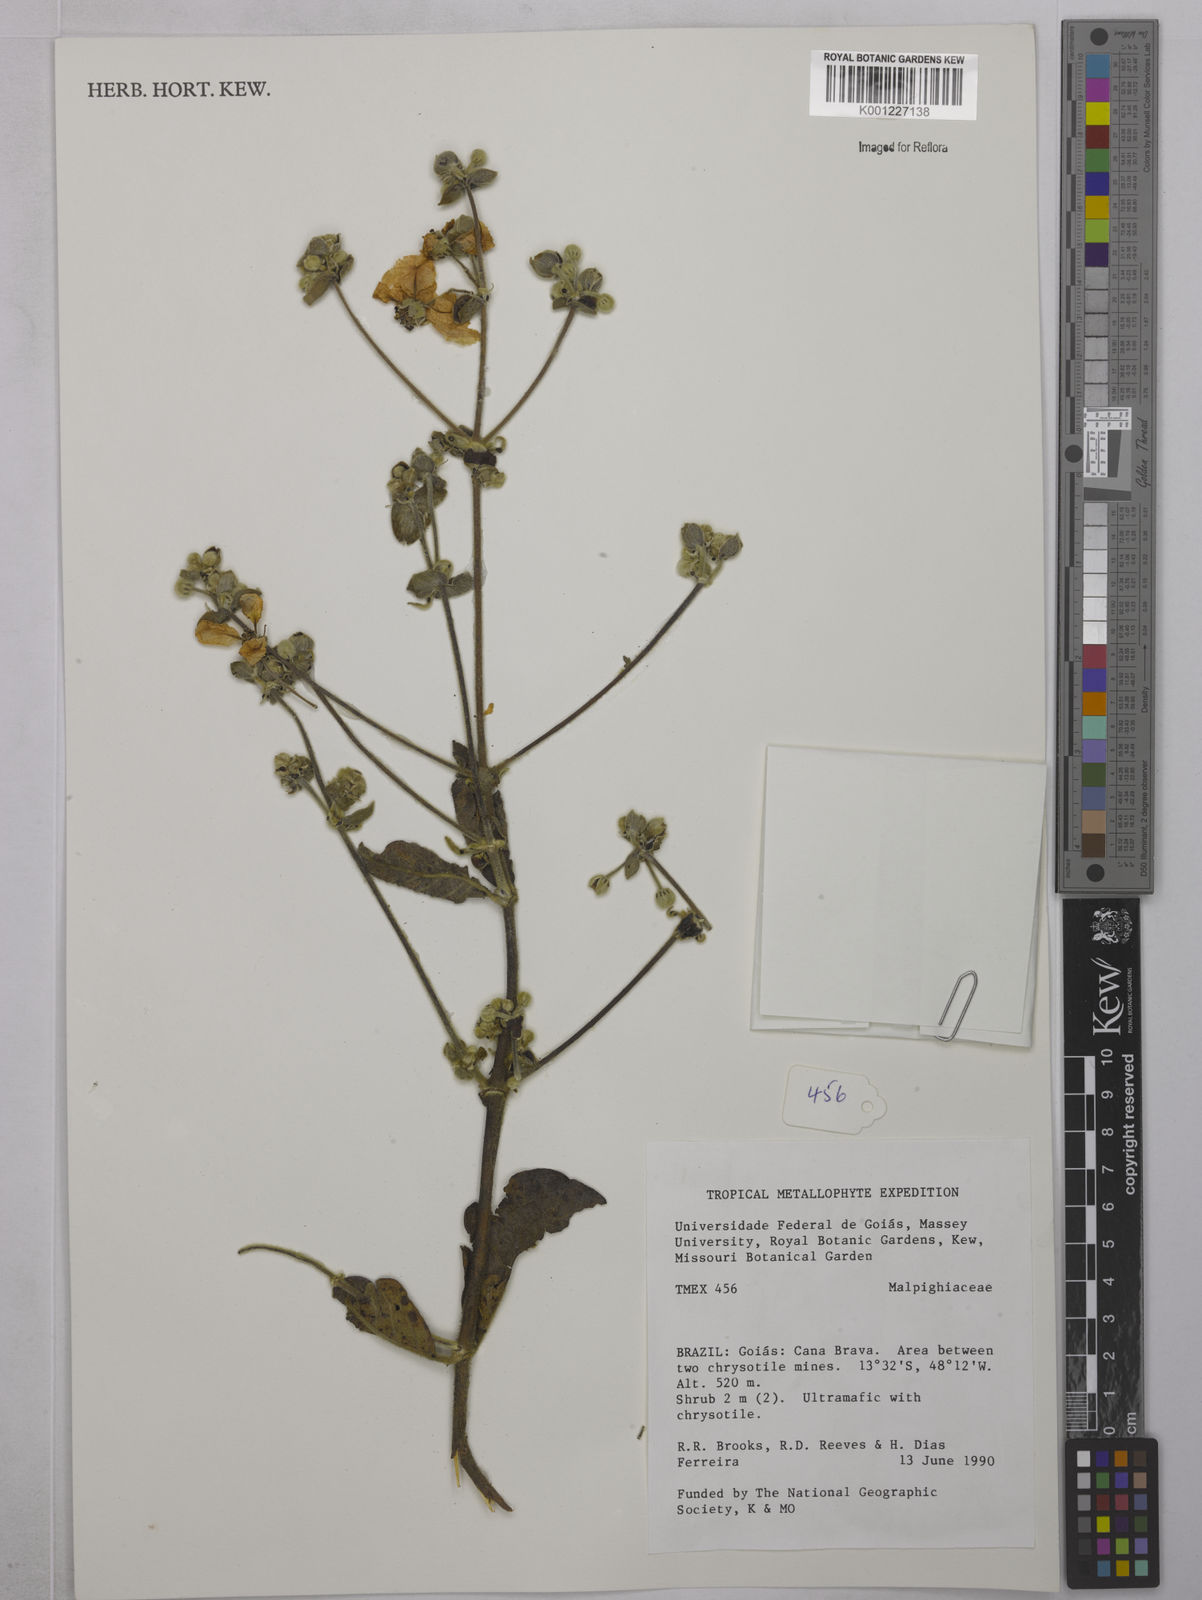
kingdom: Plantae
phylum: Tracheophyta
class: Magnoliopsida
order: Malpighiales
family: Malpighiaceae
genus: Peixotoa
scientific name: Peixotoa
